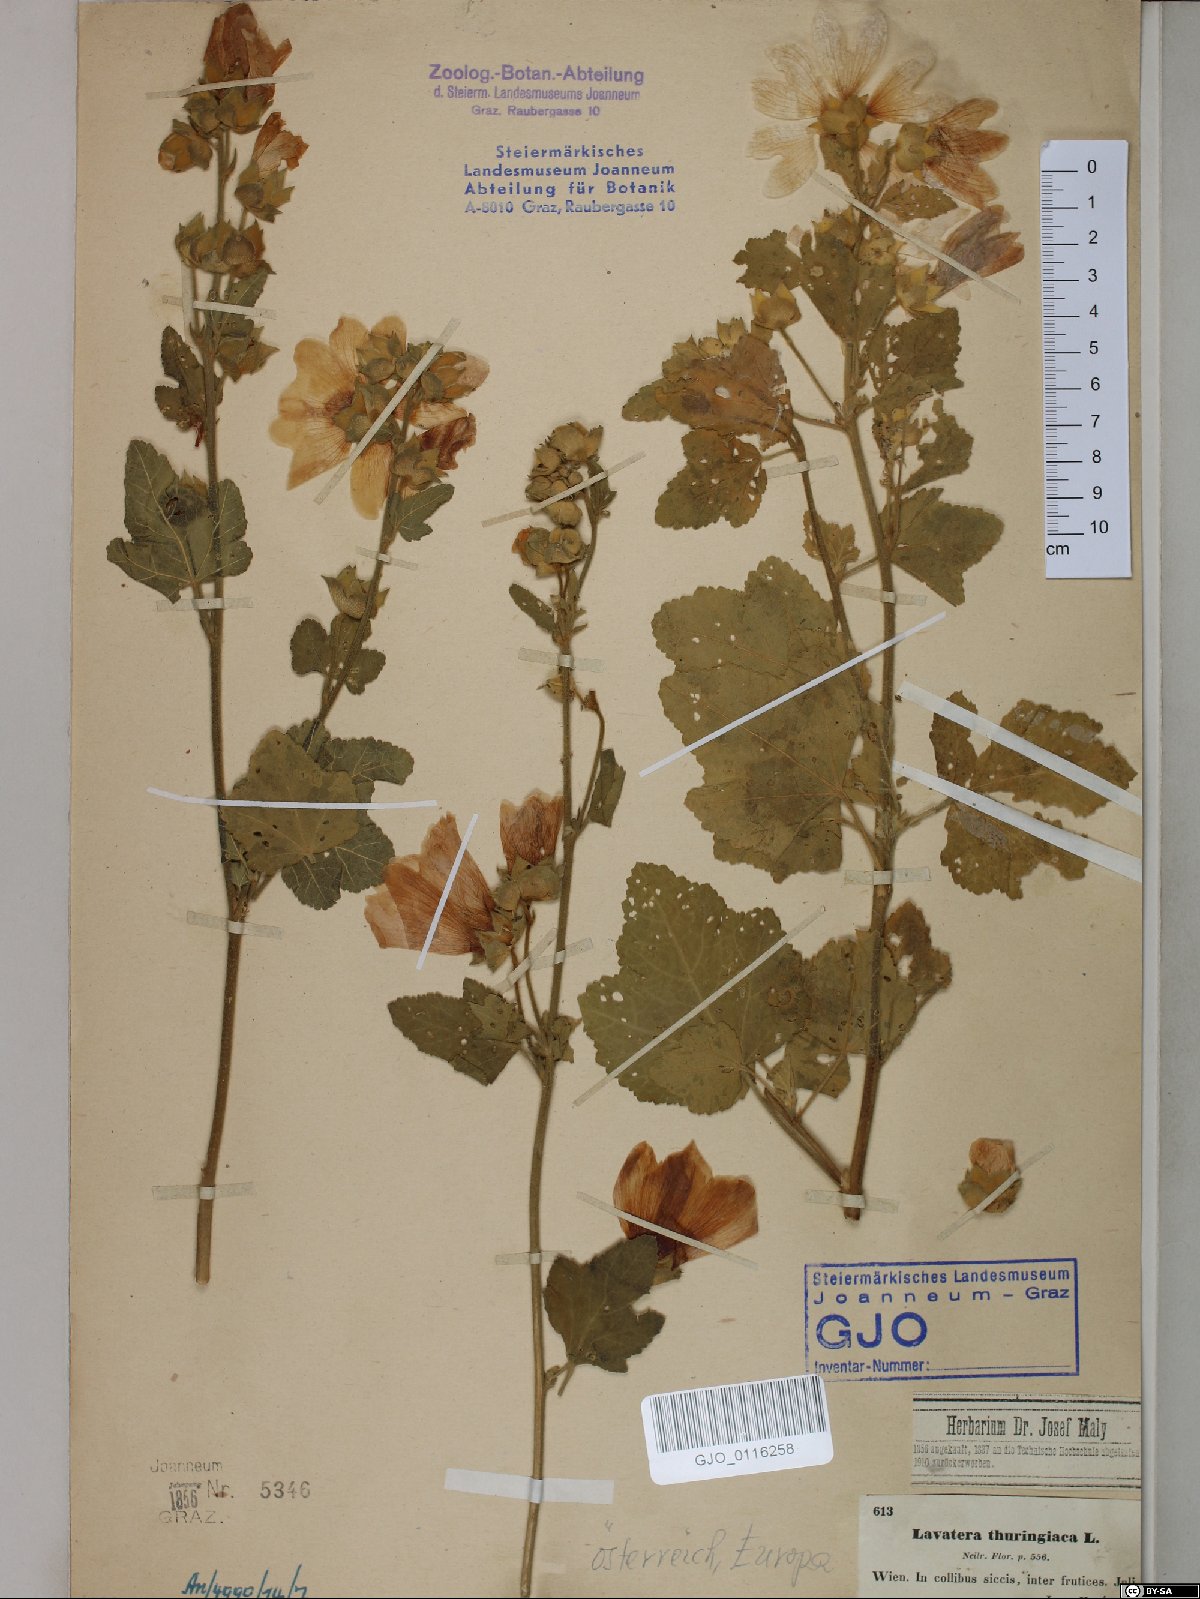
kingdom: Plantae
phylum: Tracheophyta
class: Magnoliopsida
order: Malvales
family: Malvaceae
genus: Malva
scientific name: Malva thuringiaca
